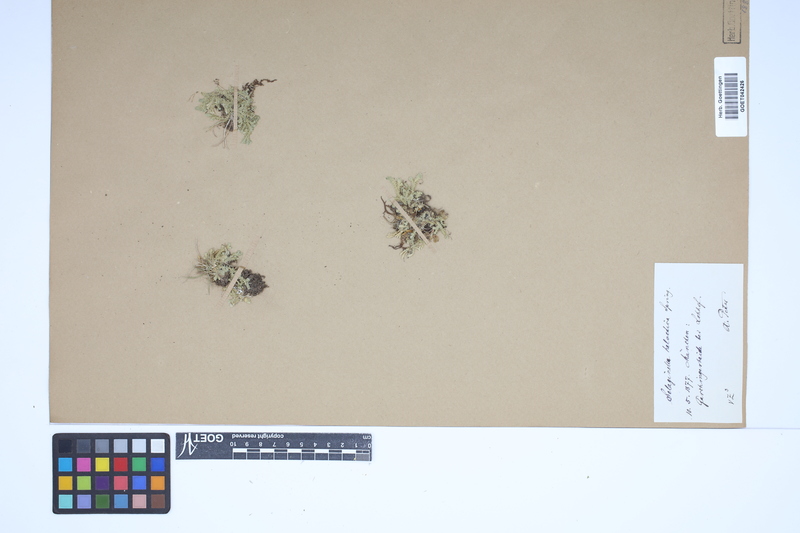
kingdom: Plantae
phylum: Tracheophyta
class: Lycopodiopsida
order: Selaginellales
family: Selaginellaceae
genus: Selaginella
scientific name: Selaginella helvetica
